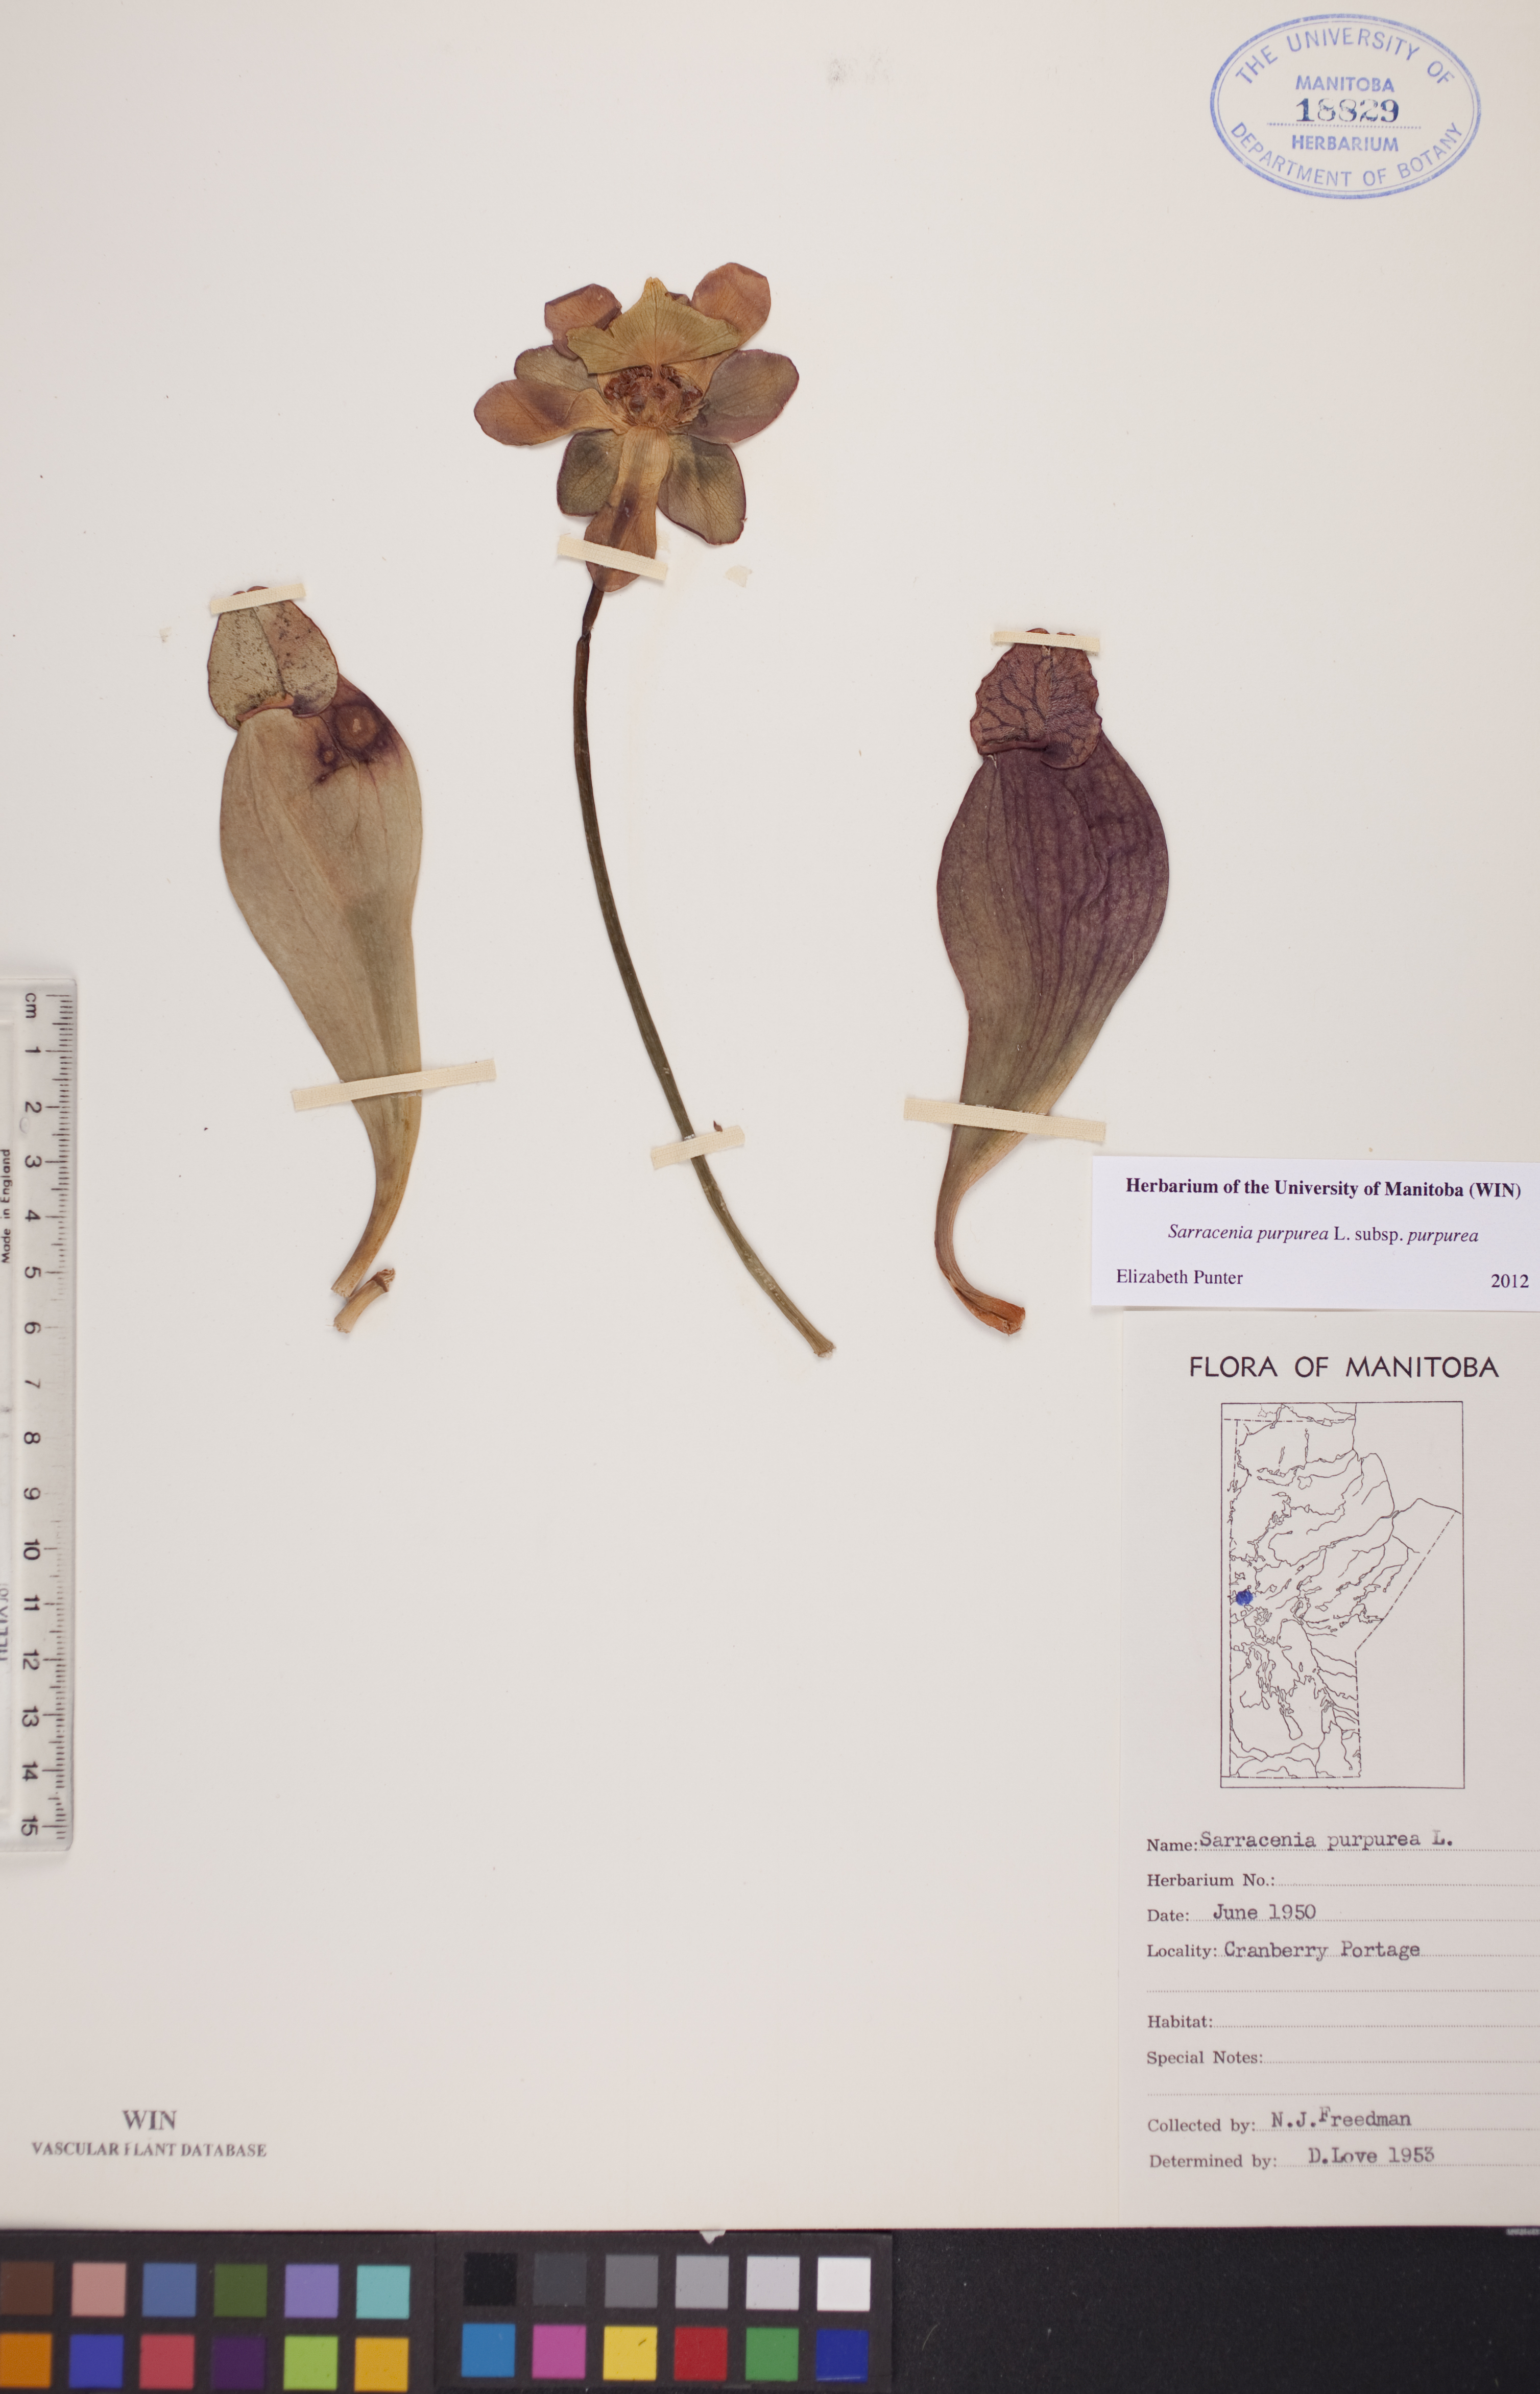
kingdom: Plantae
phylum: Tracheophyta
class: Magnoliopsida
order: Ericales
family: Sarraceniaceae
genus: Sarracenia
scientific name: Sarracenia purpurea
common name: Pitcherplant
